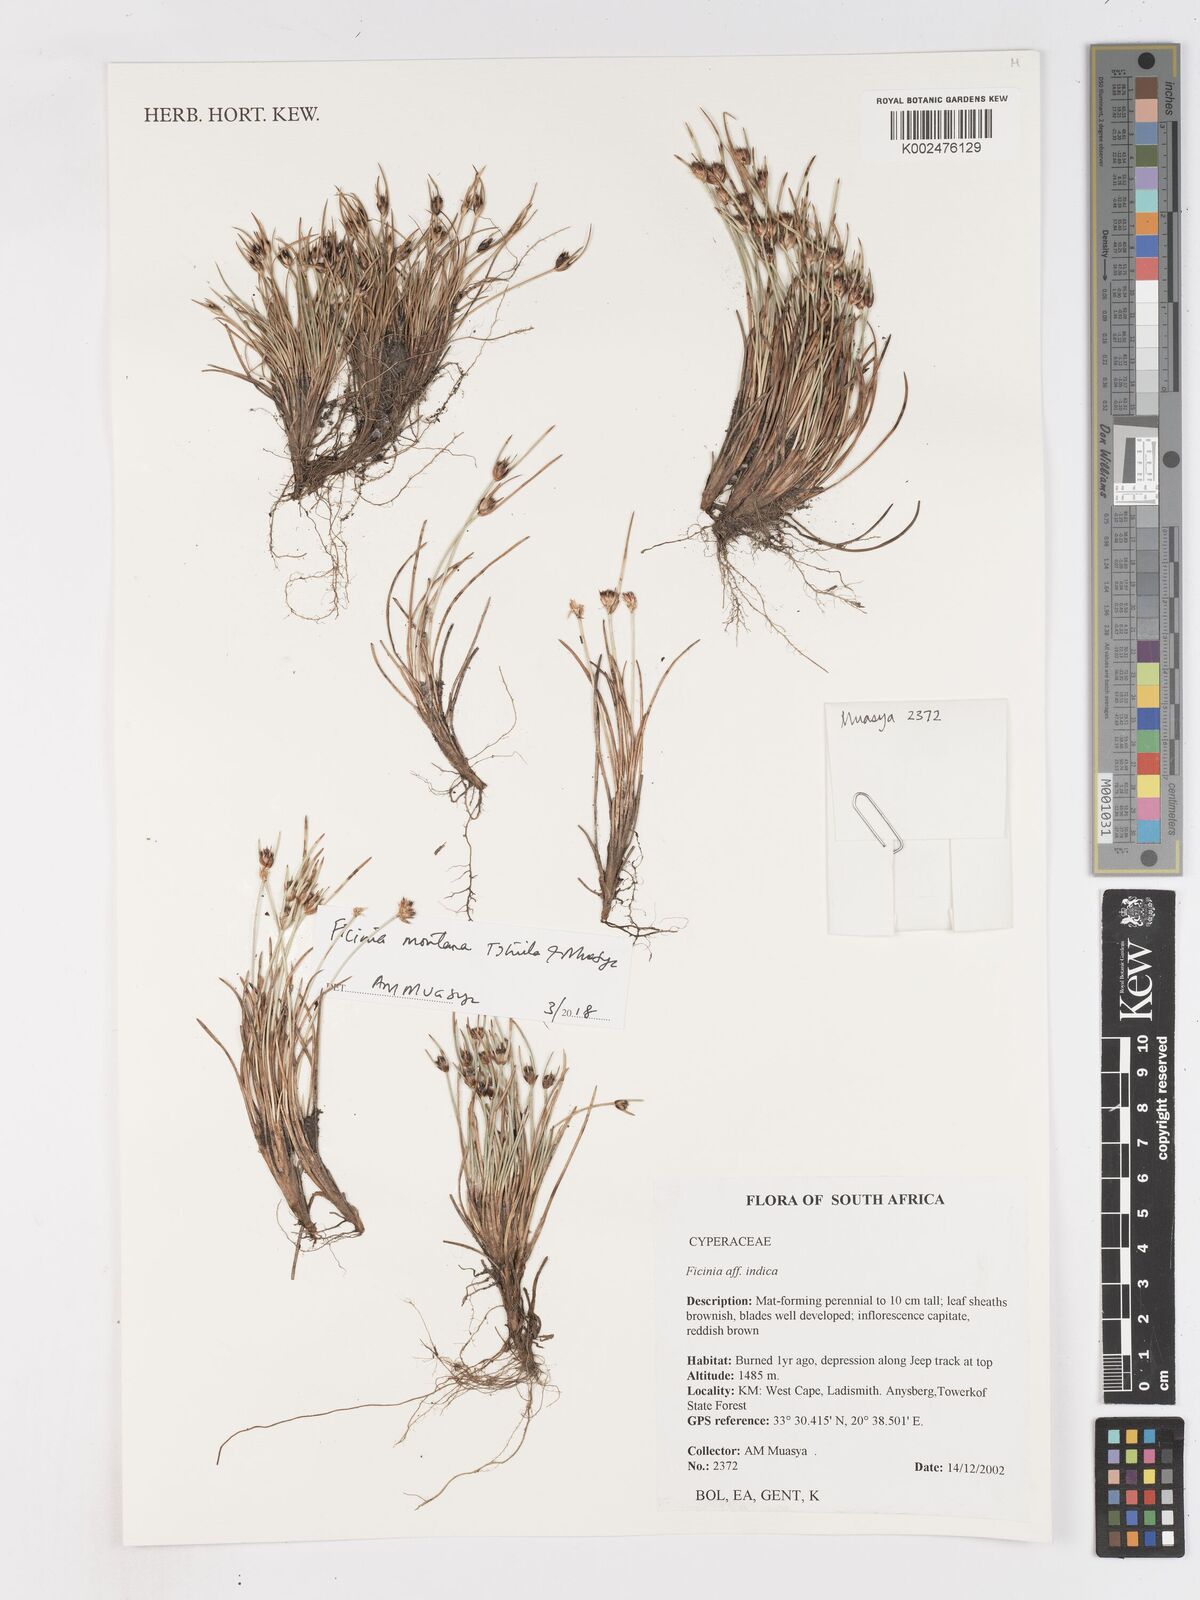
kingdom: Plantae
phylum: Tracheophyta
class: Liliopsida
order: Poales
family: Cyperaceae
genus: Ficinia
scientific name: Ficinia indica
